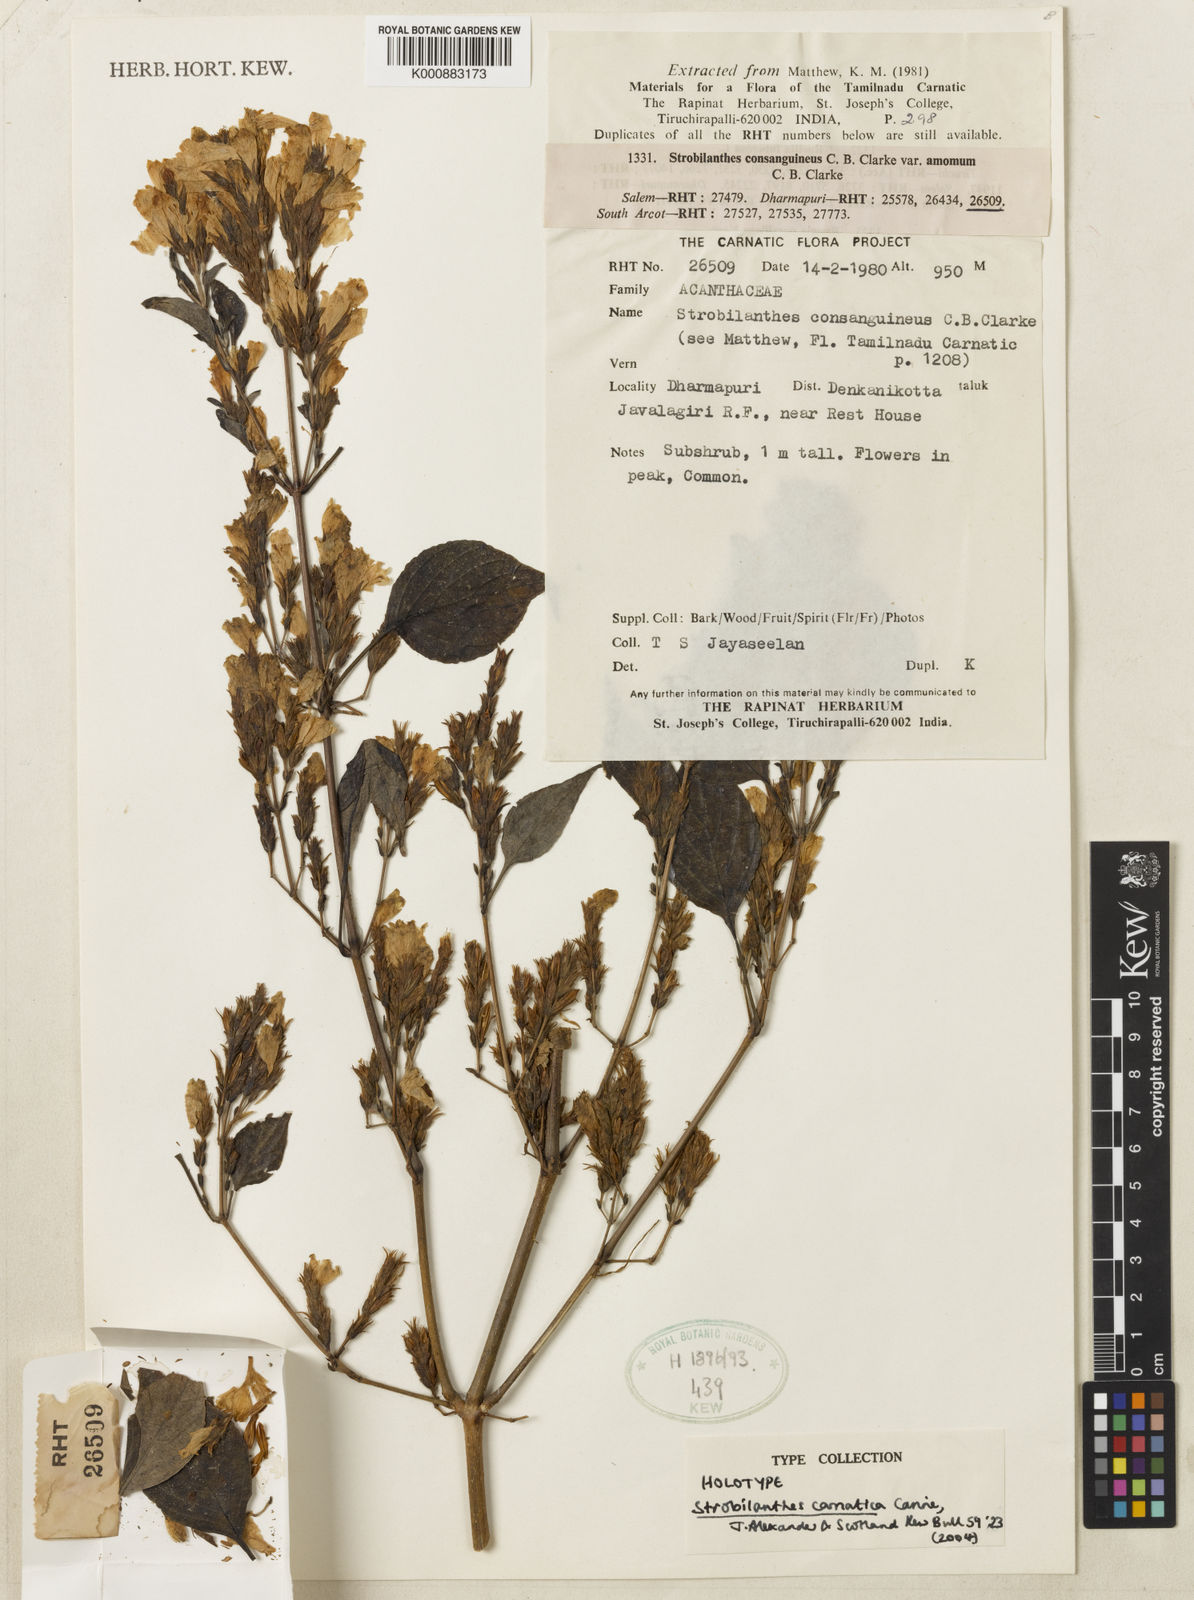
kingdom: Plantae
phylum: Tracheophyta
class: Magnoliopsida
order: Lamiales
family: Acanthaceae
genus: Strobilanthes
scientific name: Strobilanthes carnatica
